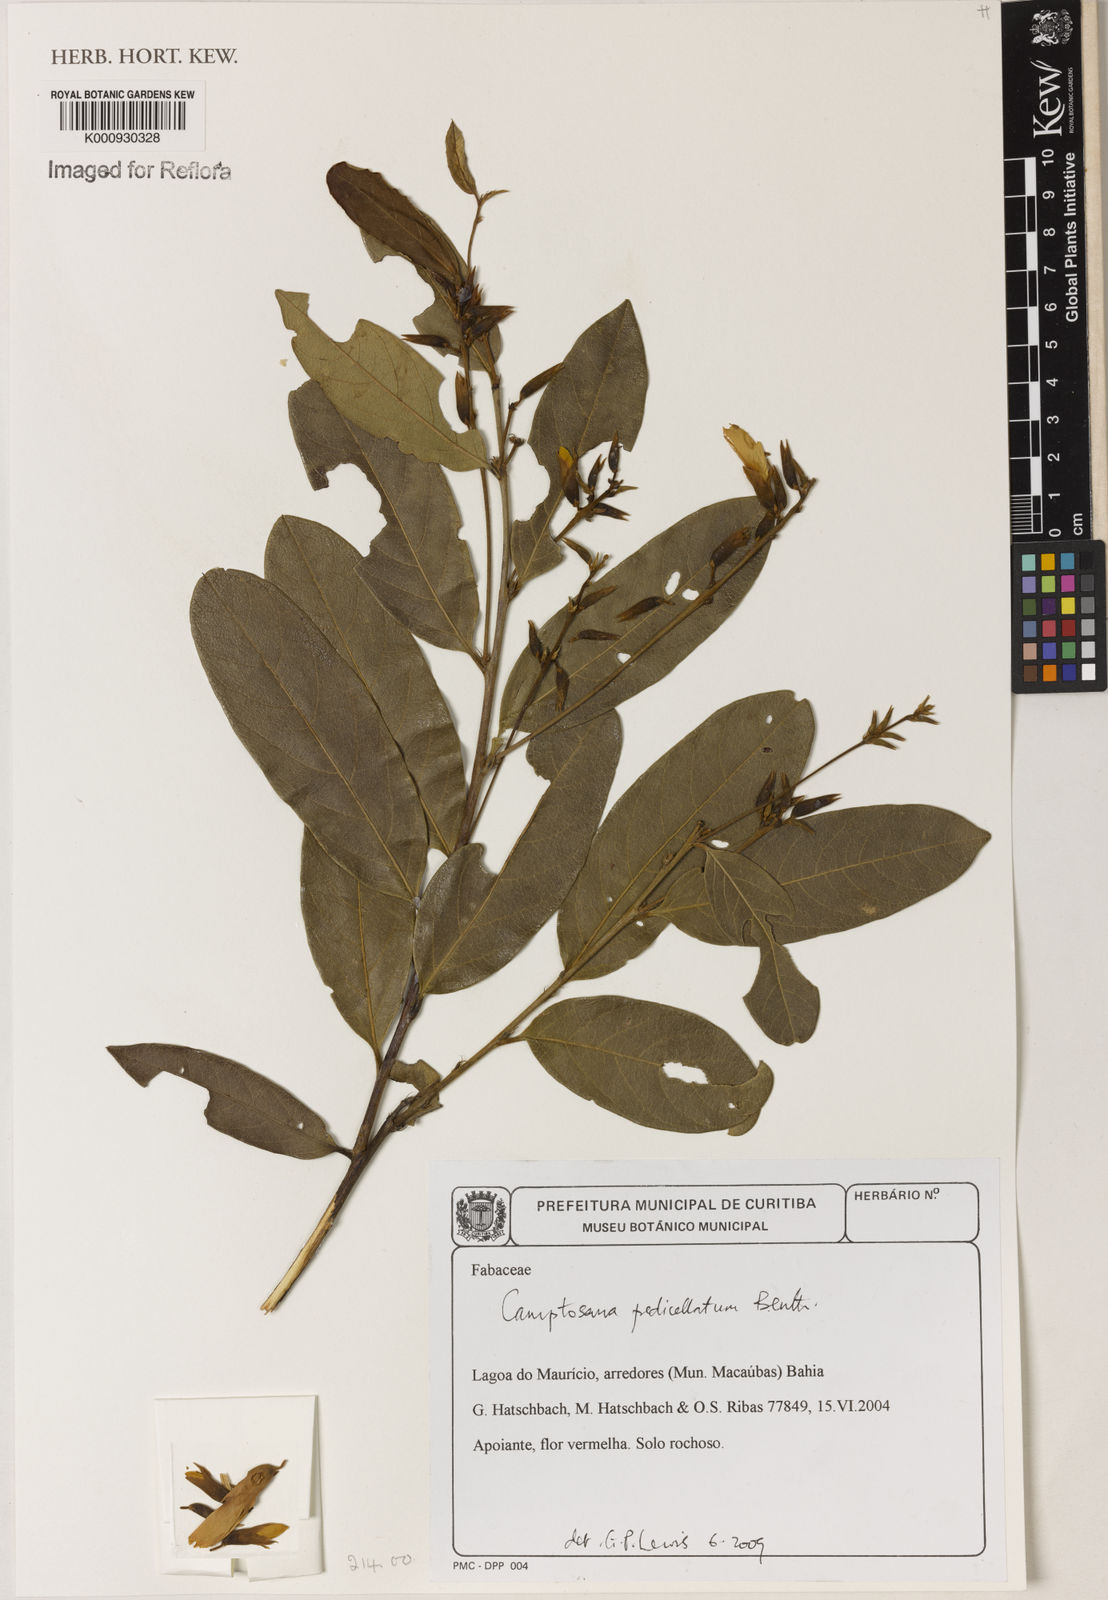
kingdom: Plantae
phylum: Tracheophyta
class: Magnoliopsida
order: Fabales
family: Fabaceae
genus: Camptosema
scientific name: Camptosema pedicellatum
